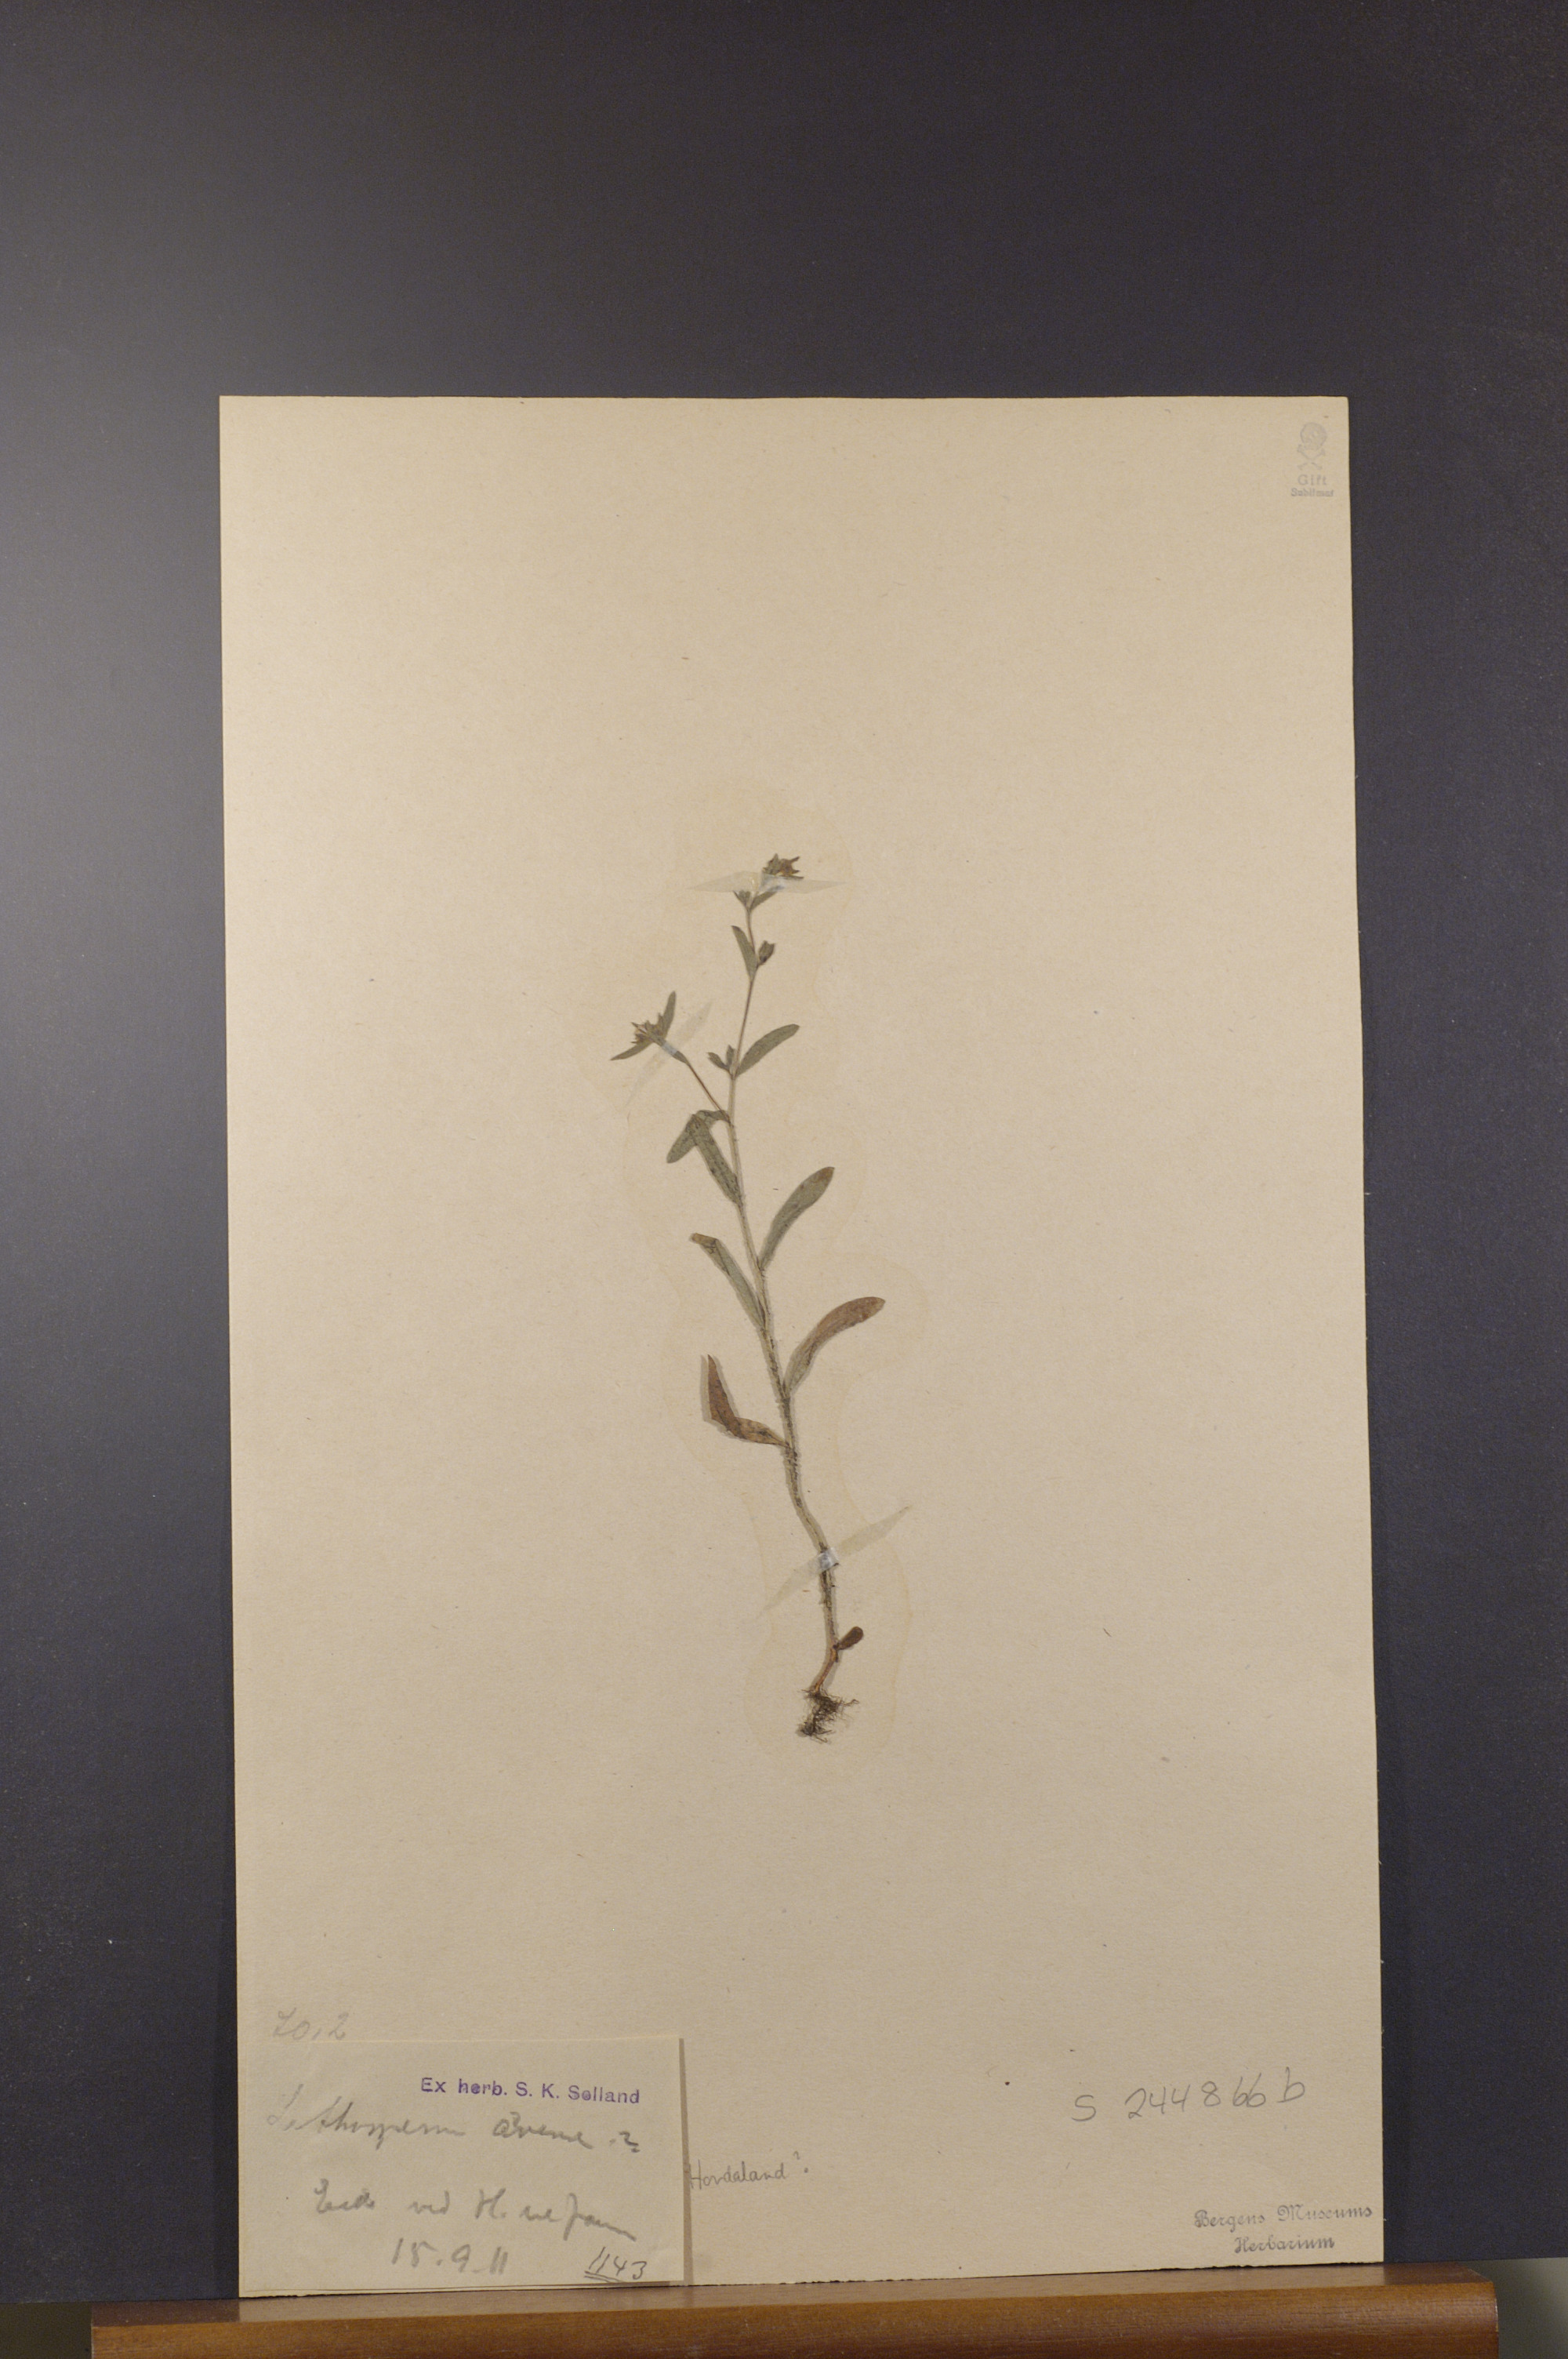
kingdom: Plantae
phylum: Tracheophyta
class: Magnoliopsida
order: Boraginales
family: Boraginaceae
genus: Buglossoides
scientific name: Buglossoides arvensis
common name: Corn gromwell
